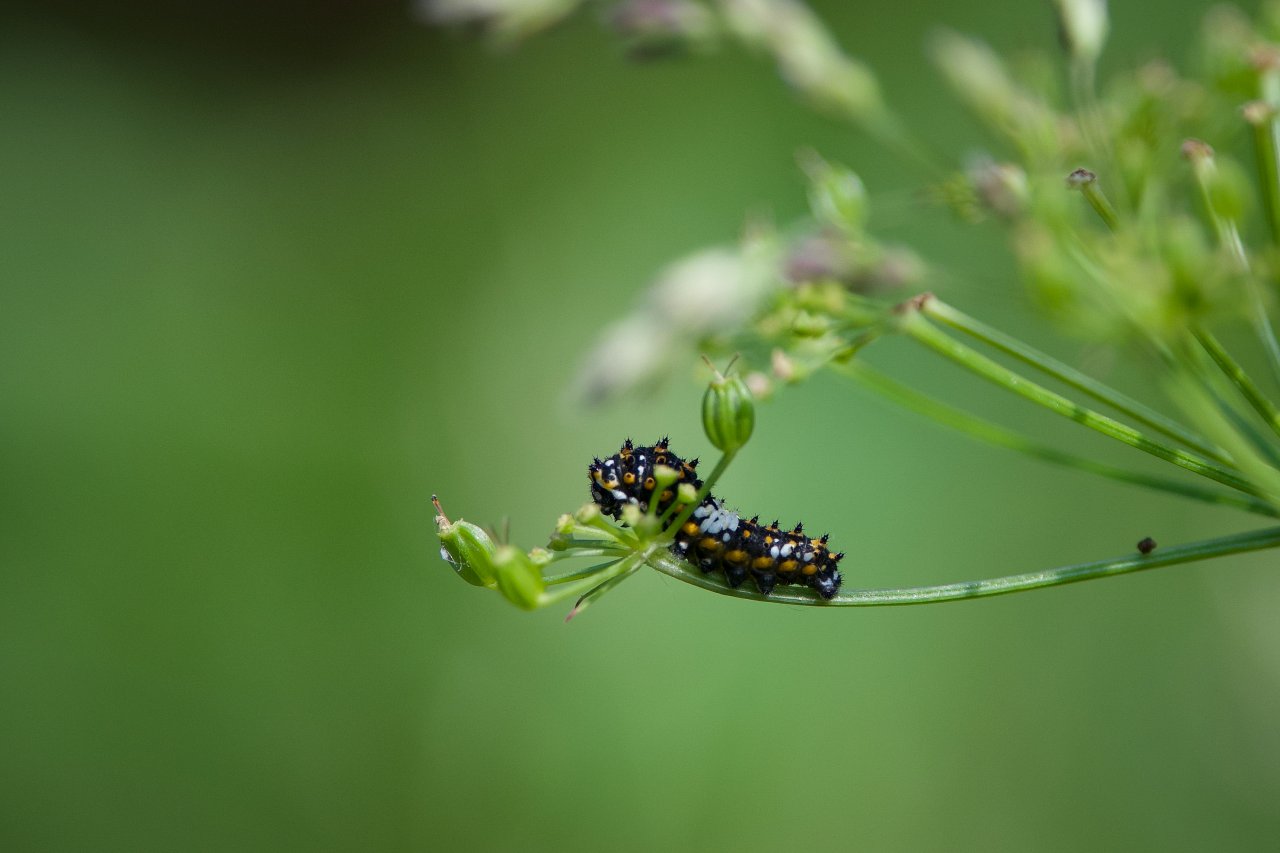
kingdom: Animalia
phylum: Arthropoda
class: Insecta
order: Lepidoptera
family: Papilionidae
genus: Papilio
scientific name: Papilio polyxenes
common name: Black Swallowtail
